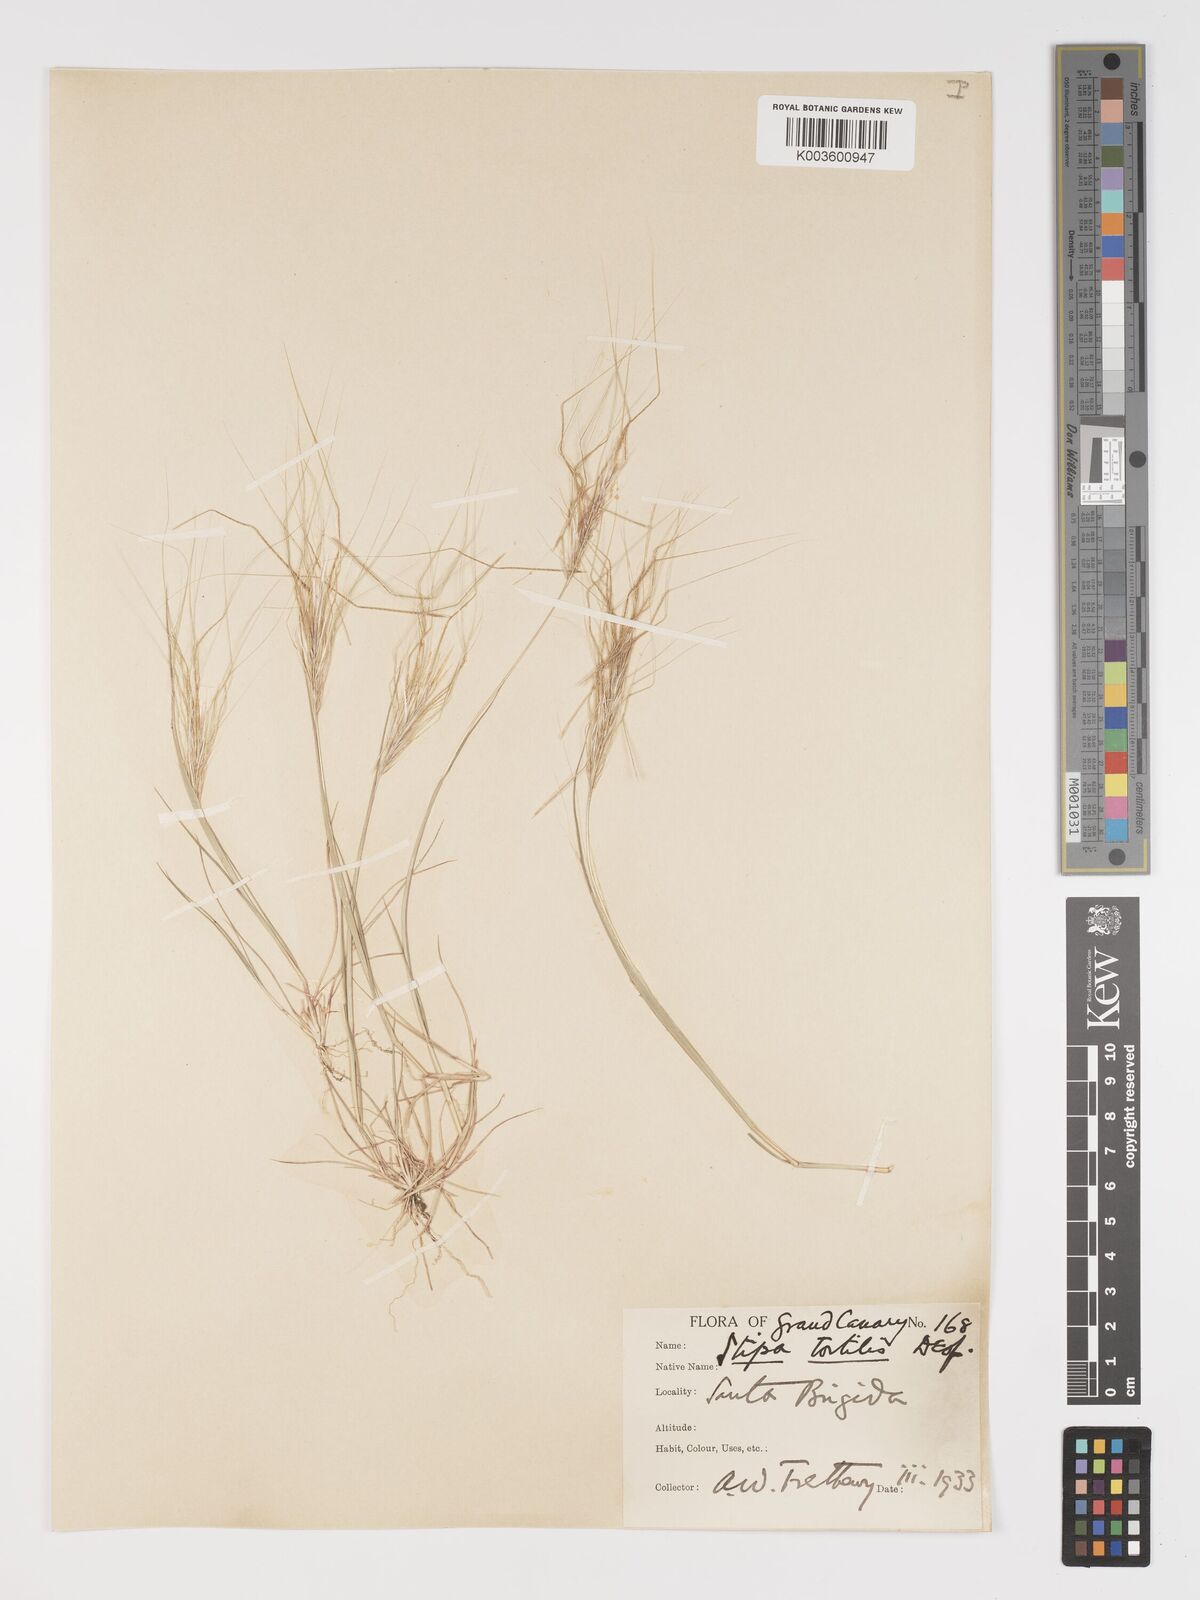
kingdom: Plantae
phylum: Tracheophyta
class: Liliopsida
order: Poales
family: Poaceae
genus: Stipa
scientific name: Stipa dregeana
